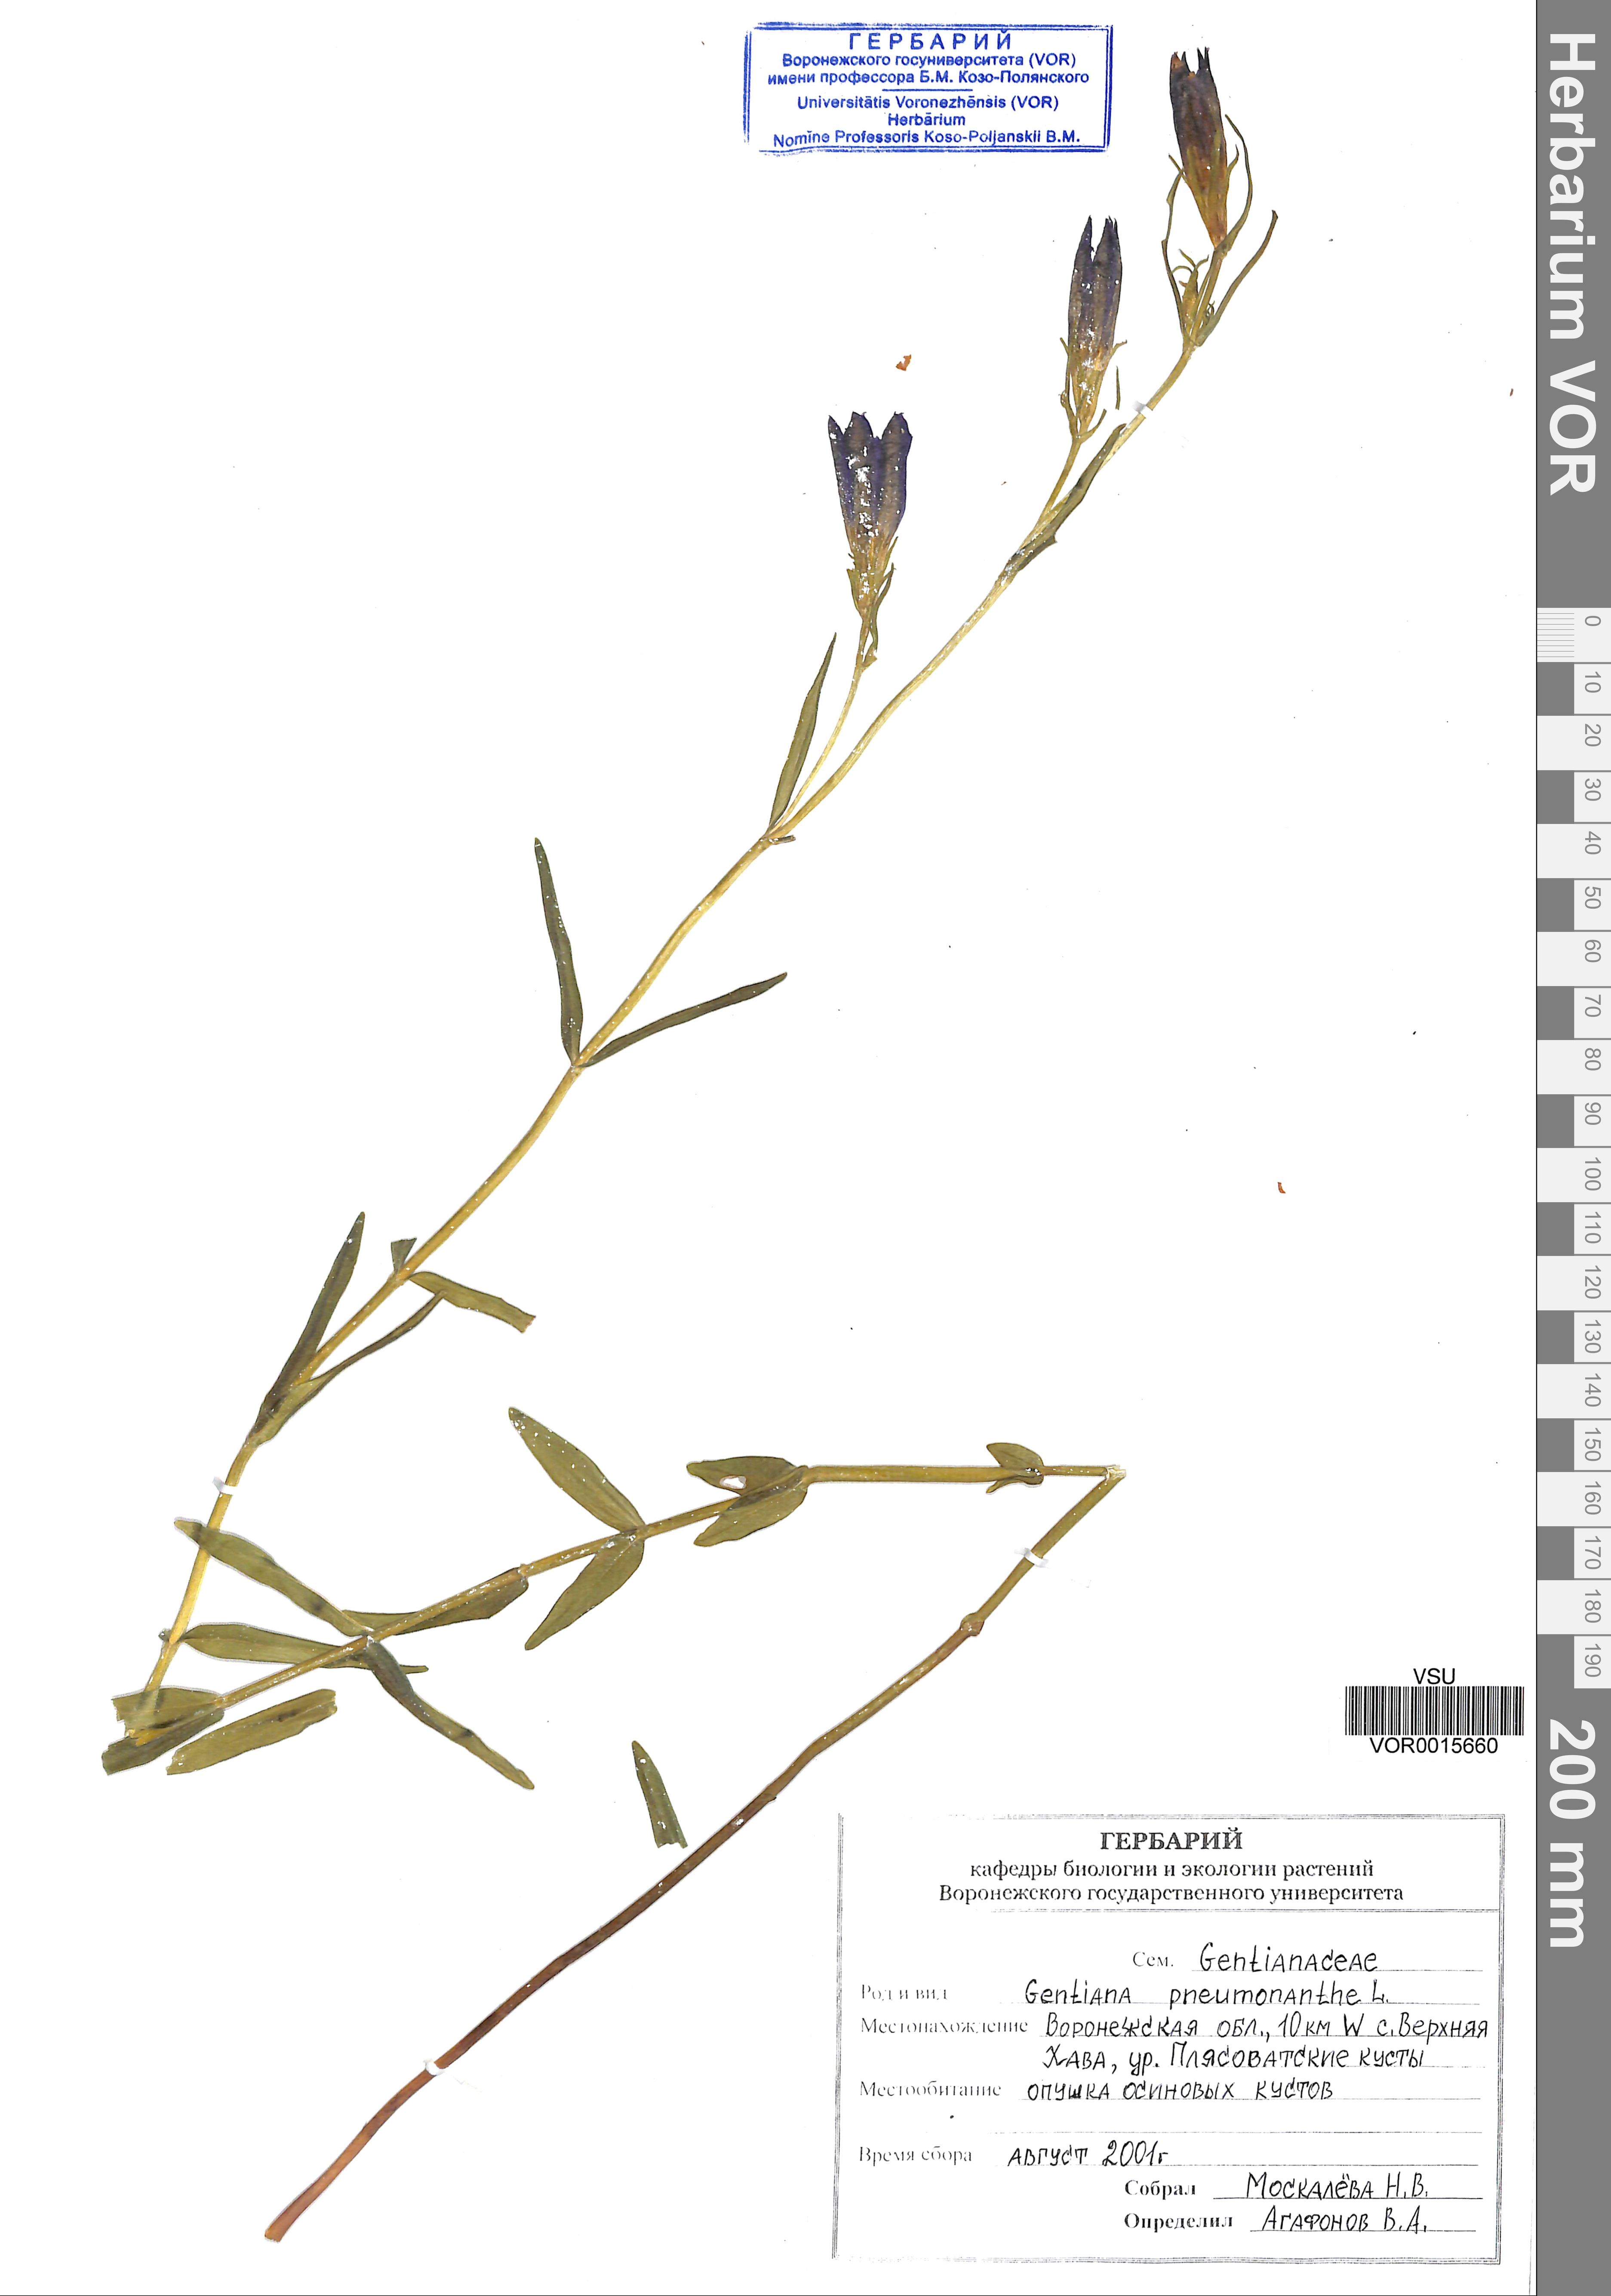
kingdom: Plantae
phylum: Tracheophyta
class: Magnoliopsida
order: Gentianales
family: Gentianaceae
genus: Gentiana
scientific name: Gentiana pneumonanthe
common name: Marsh gentian
